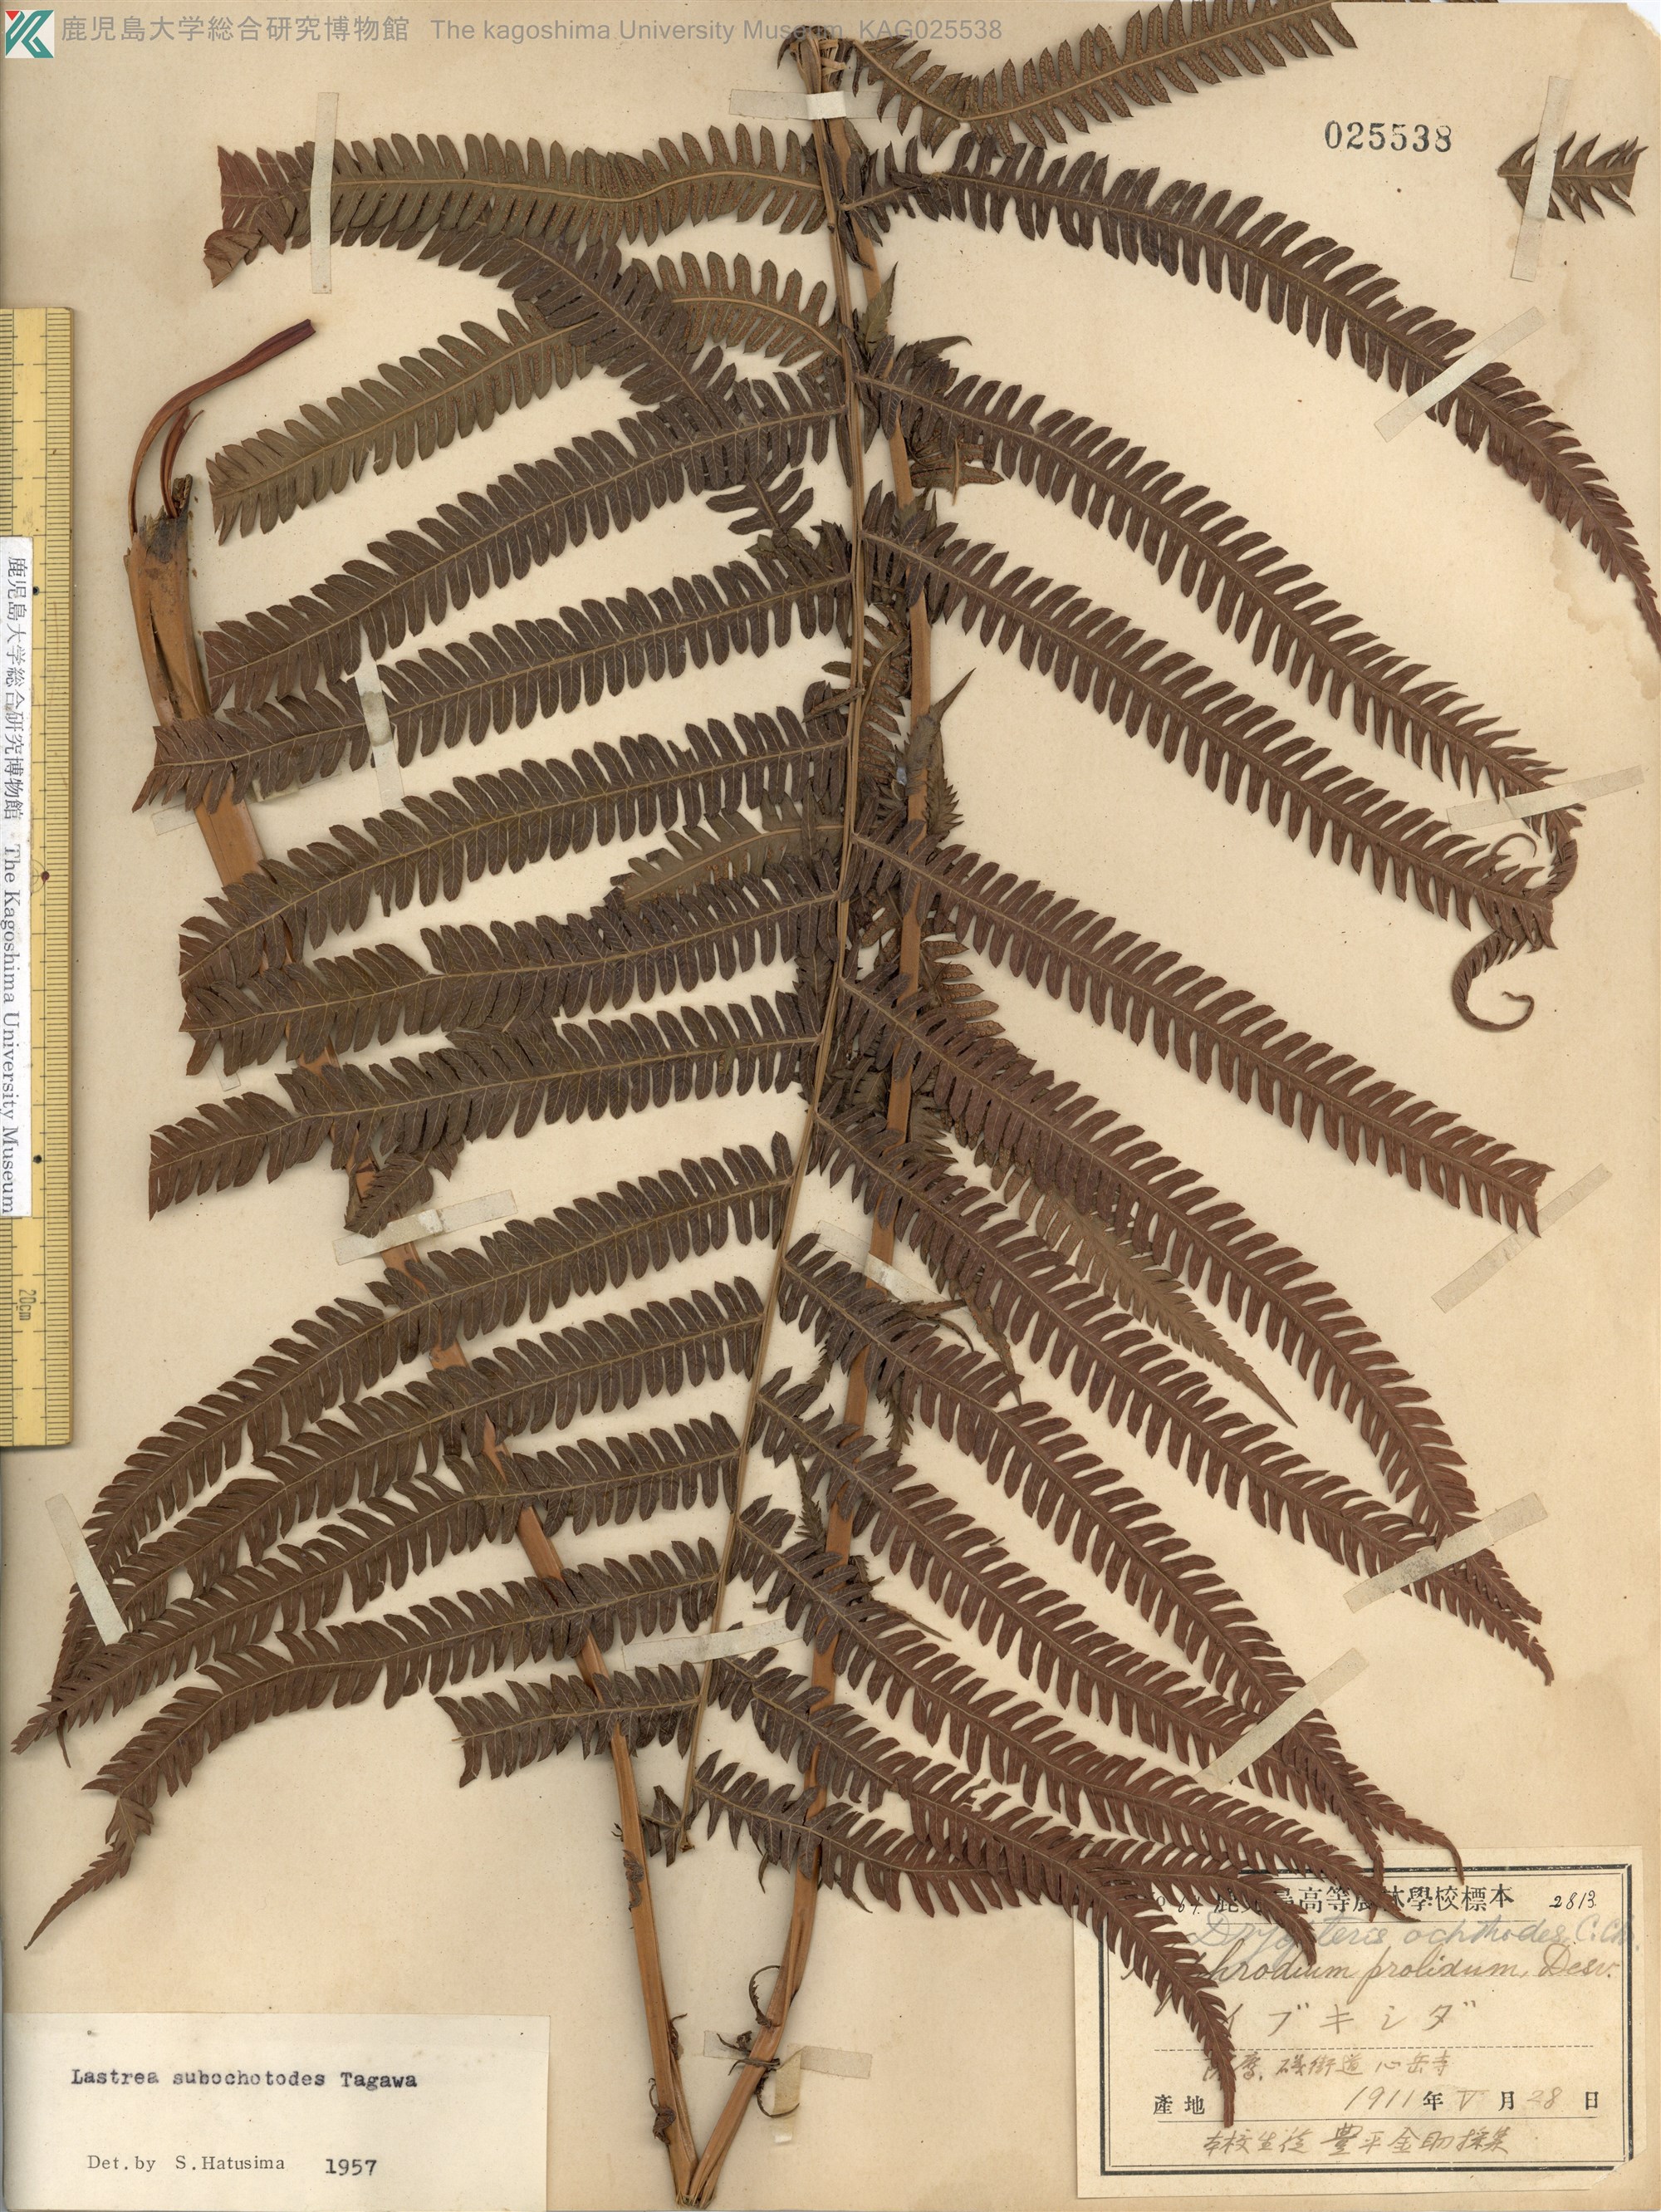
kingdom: Plantae
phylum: Tracheophyta
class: Polypodiopsida
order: Polypodiales
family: Thelypteridaceae
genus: Pseudocyclosorus
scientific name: Pseudocyclosorus esquirolii
